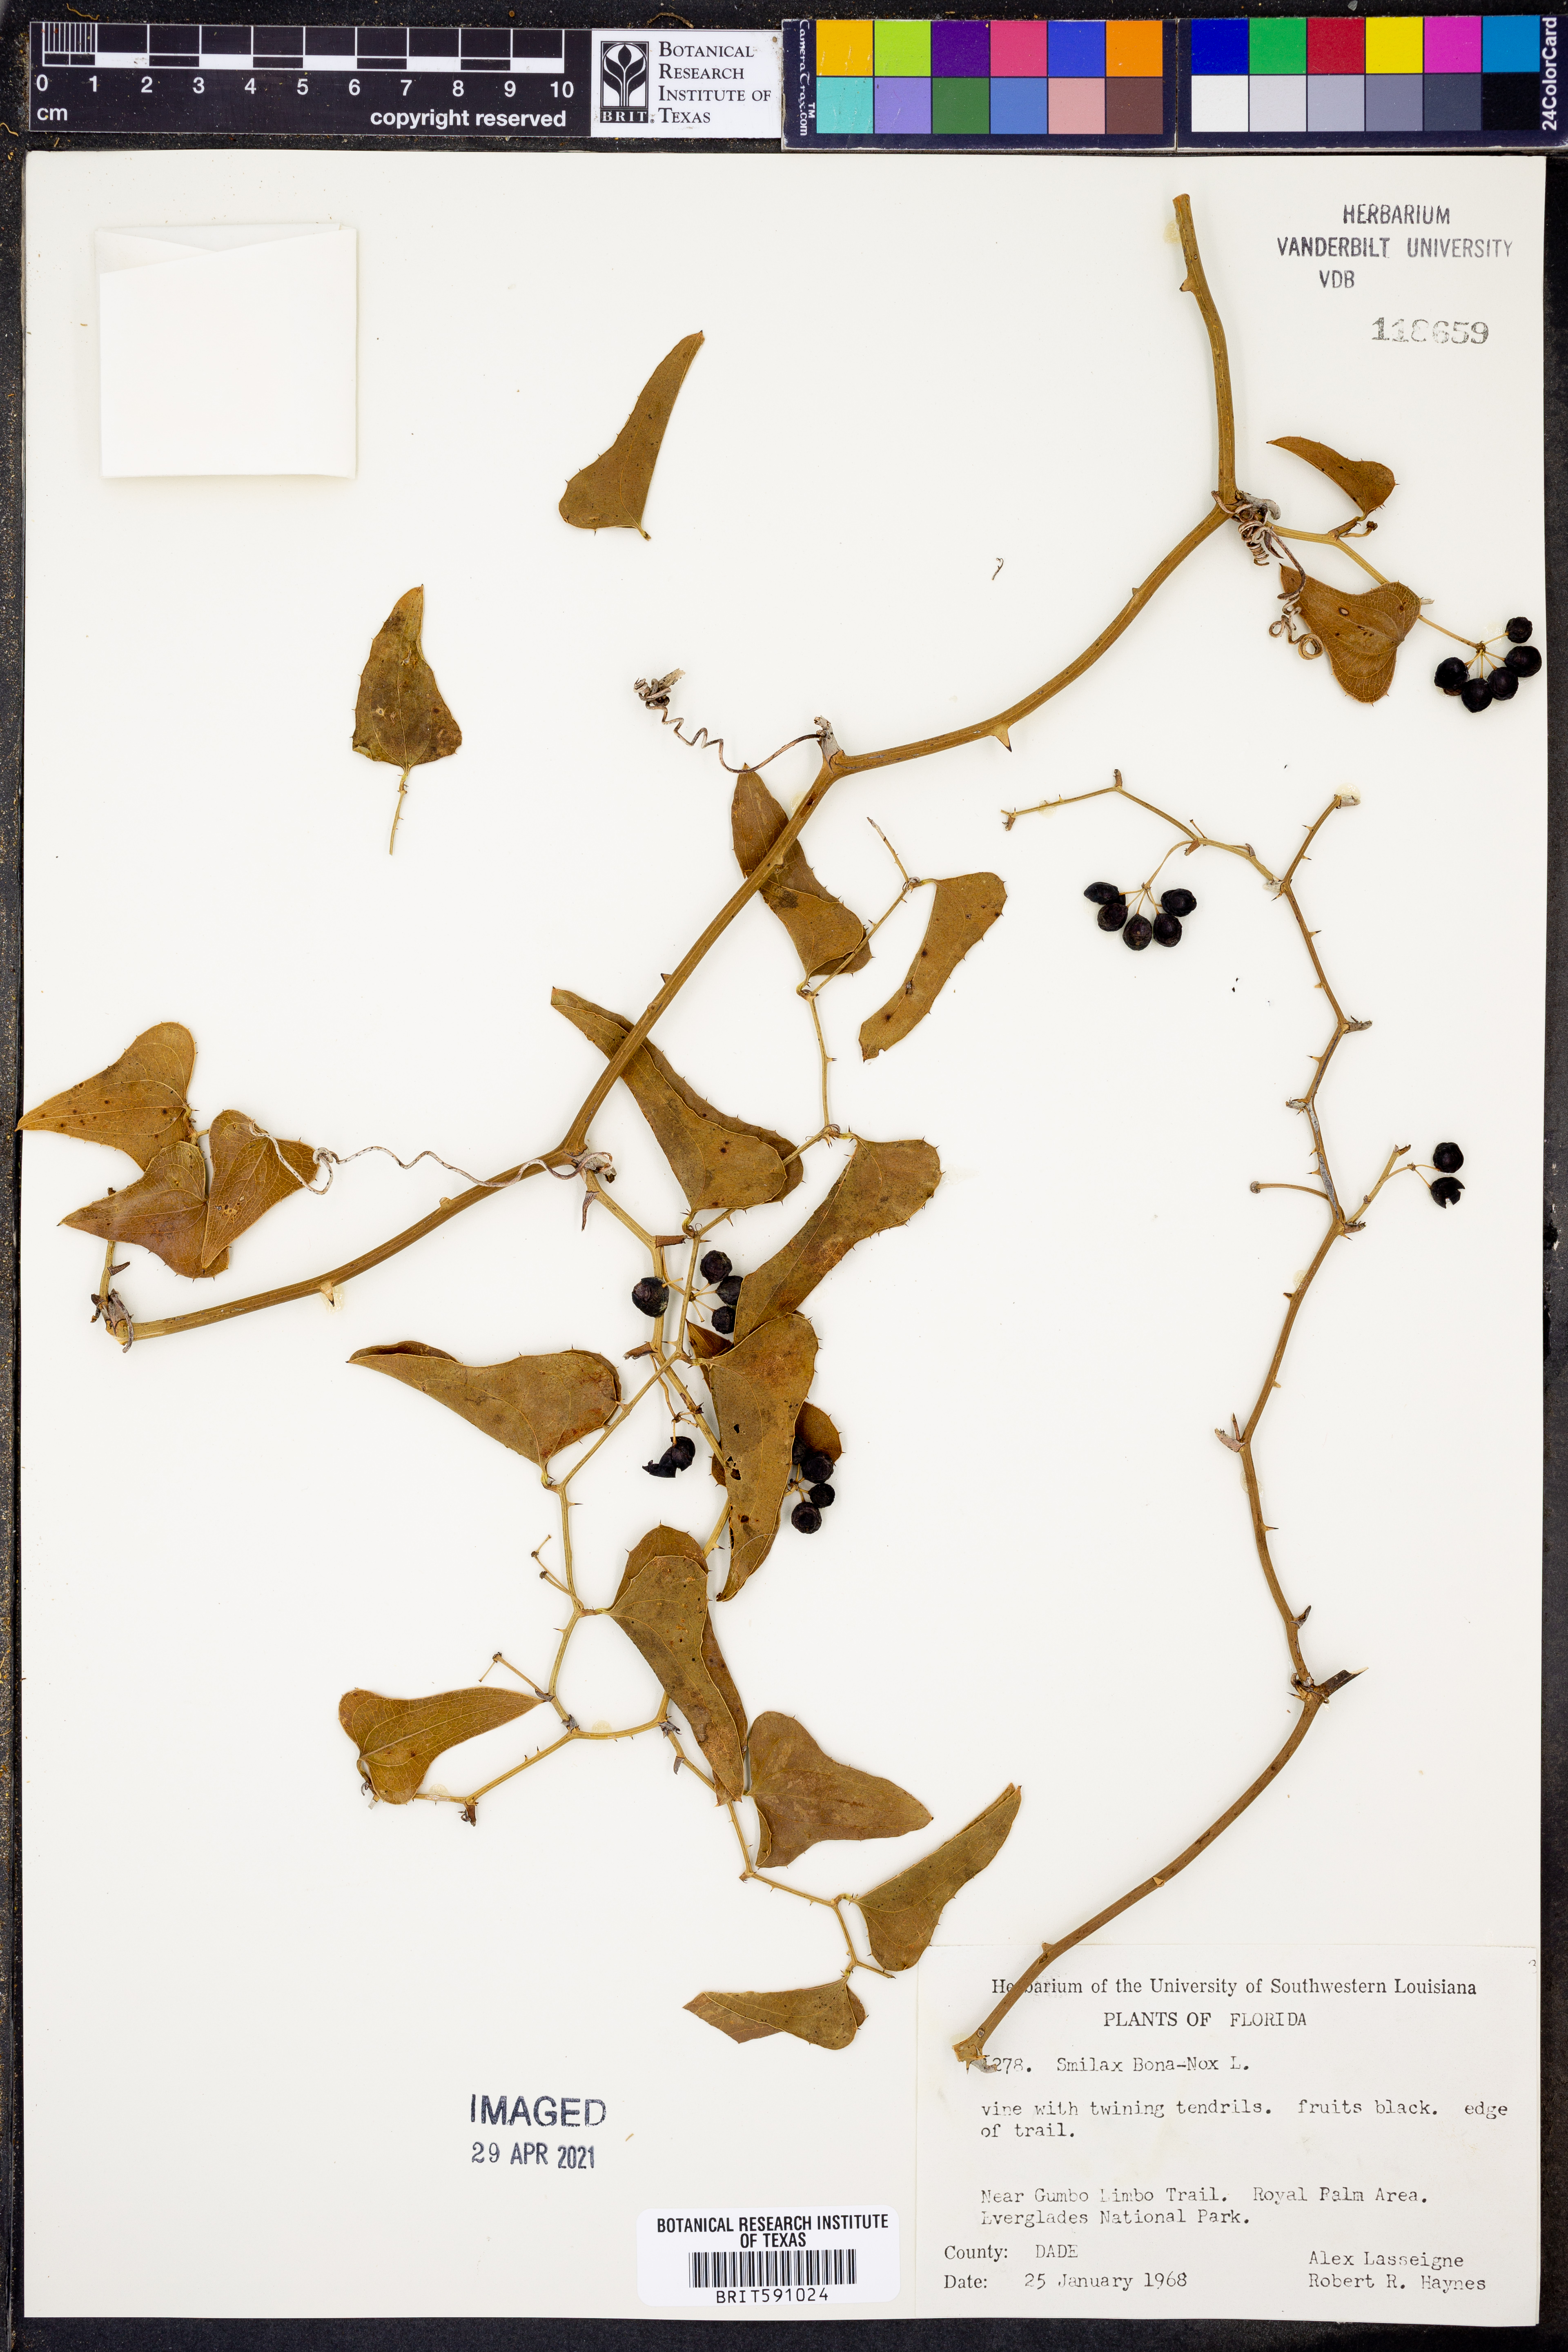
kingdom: Plantae
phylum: Tracheophyta
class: Liliopsida
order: Liliales
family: Smilacaceae
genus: Smilax
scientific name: Smilax bona-nox
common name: Catbrier
